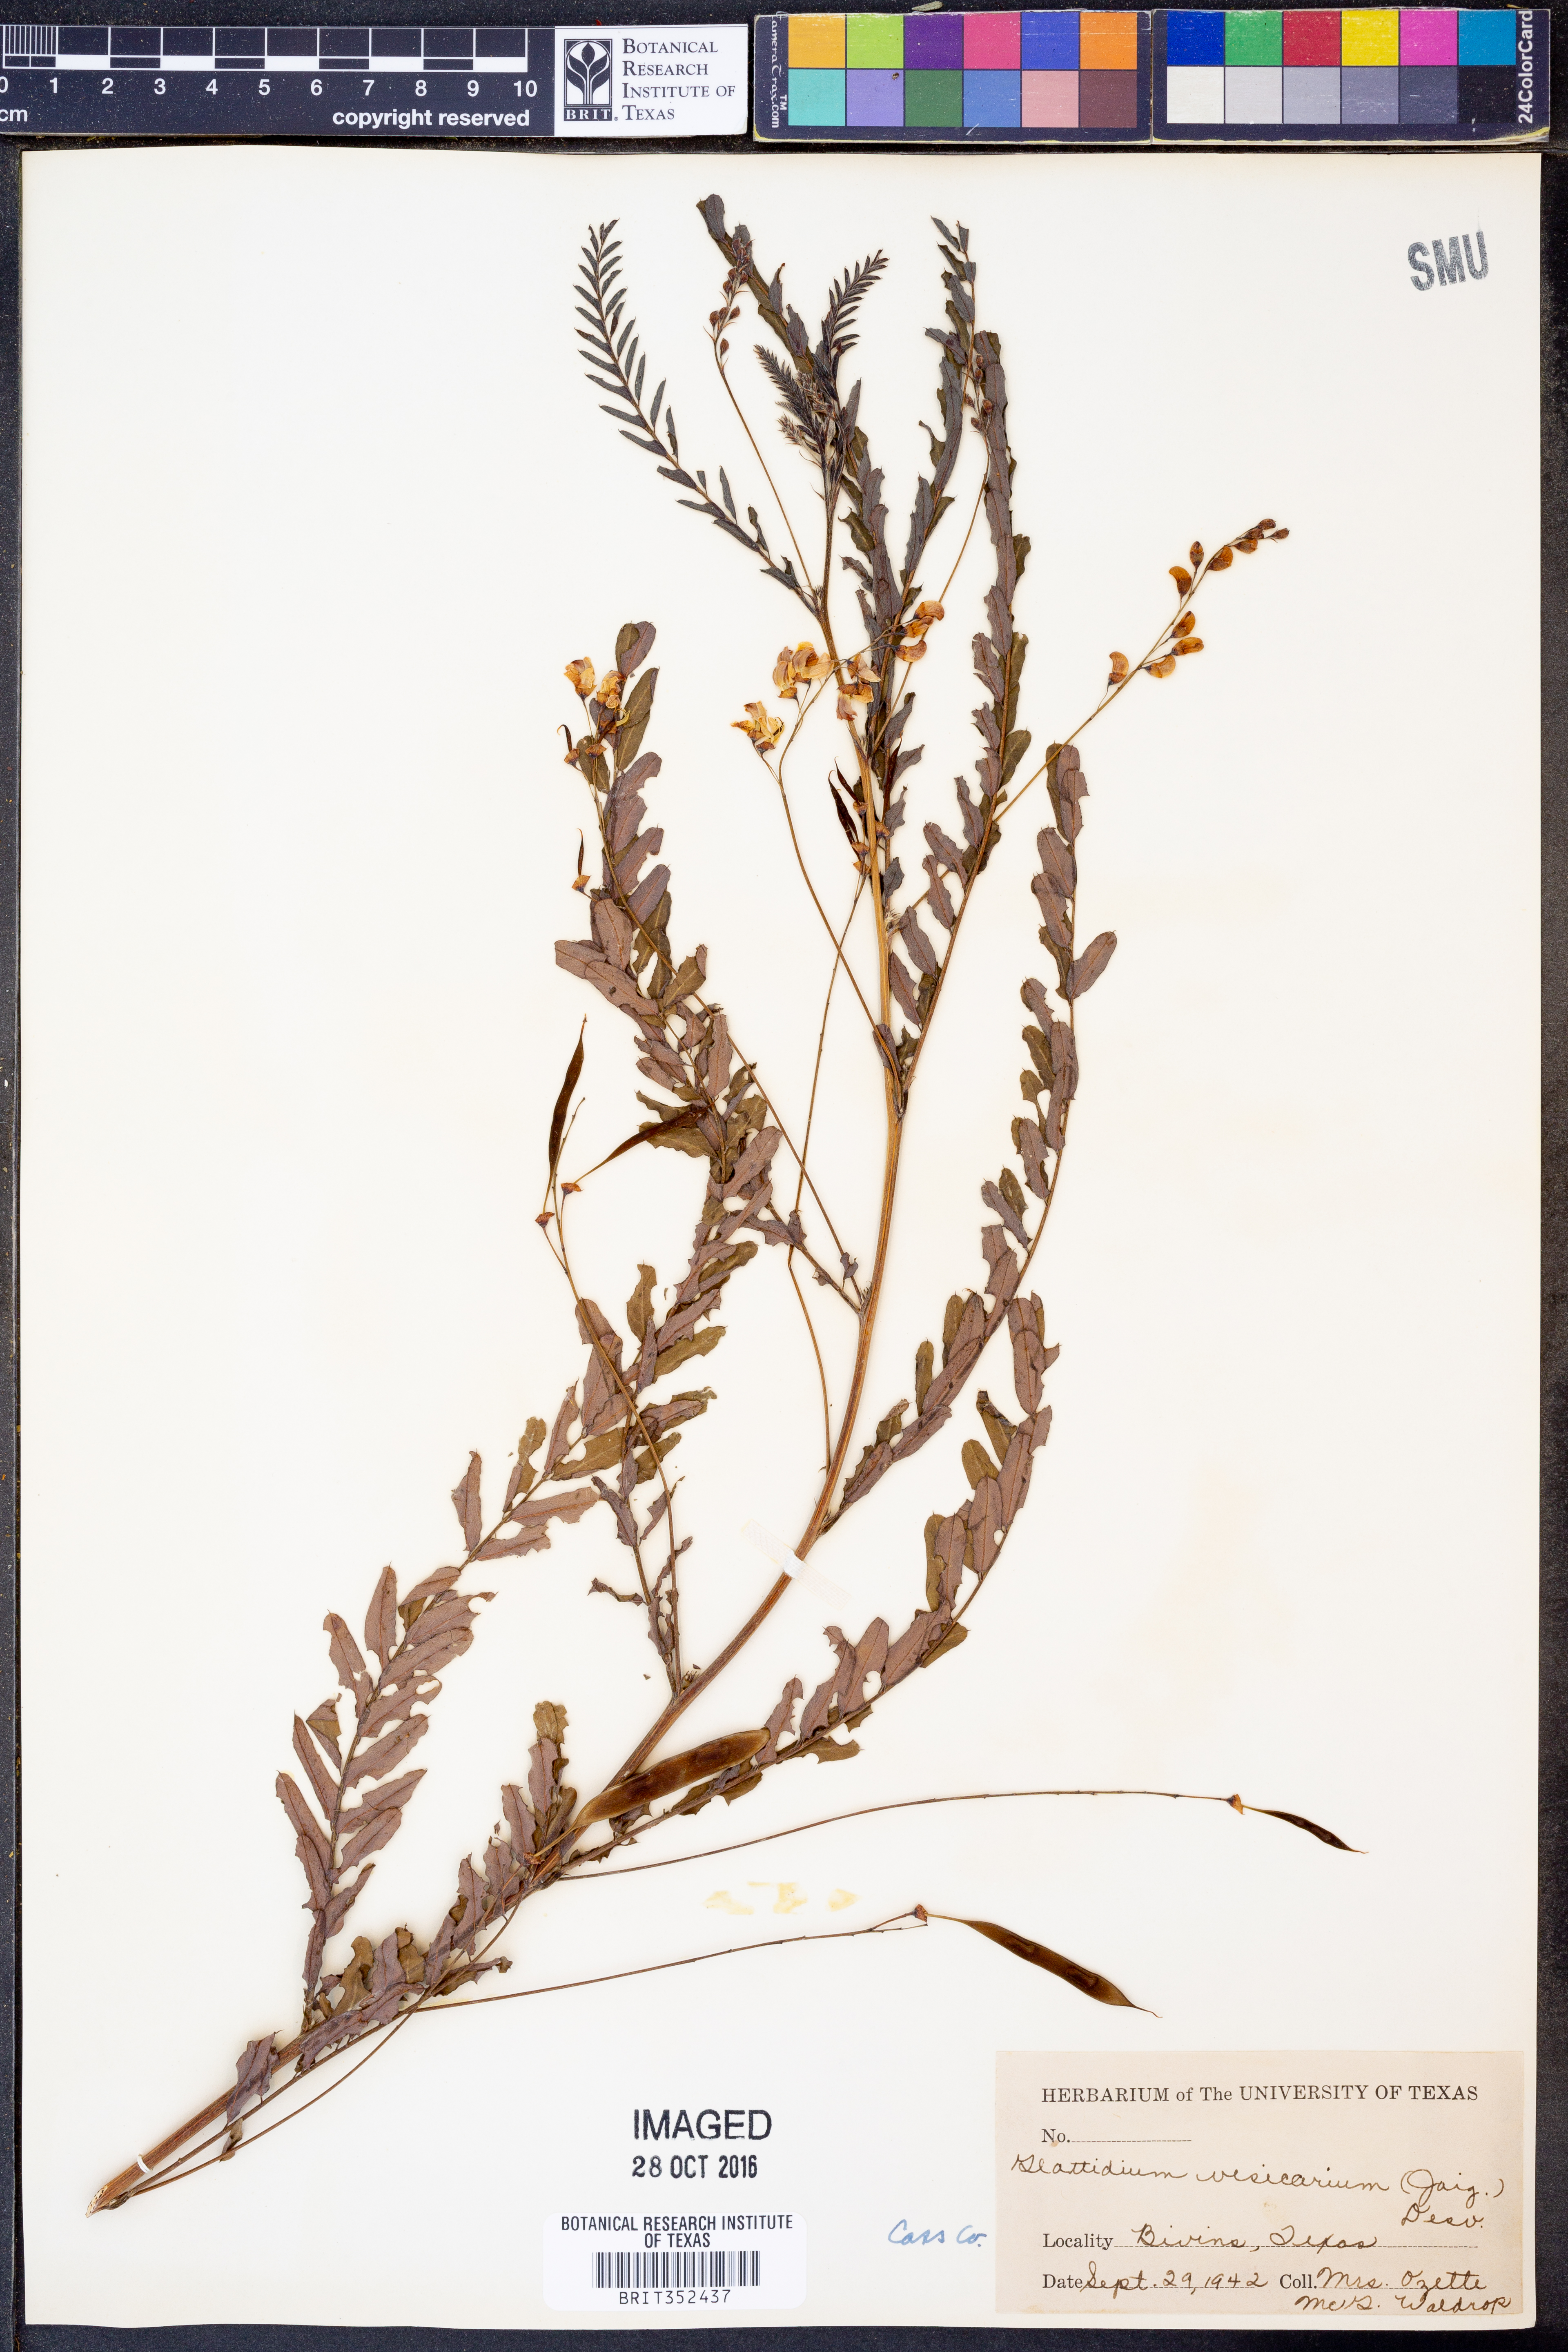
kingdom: Plantae
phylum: Tracheophyta
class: Magnoliopsida
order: Fabales
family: Fabaceae
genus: Sesbania
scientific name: Sesbania vesicaria
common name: Bagpod
